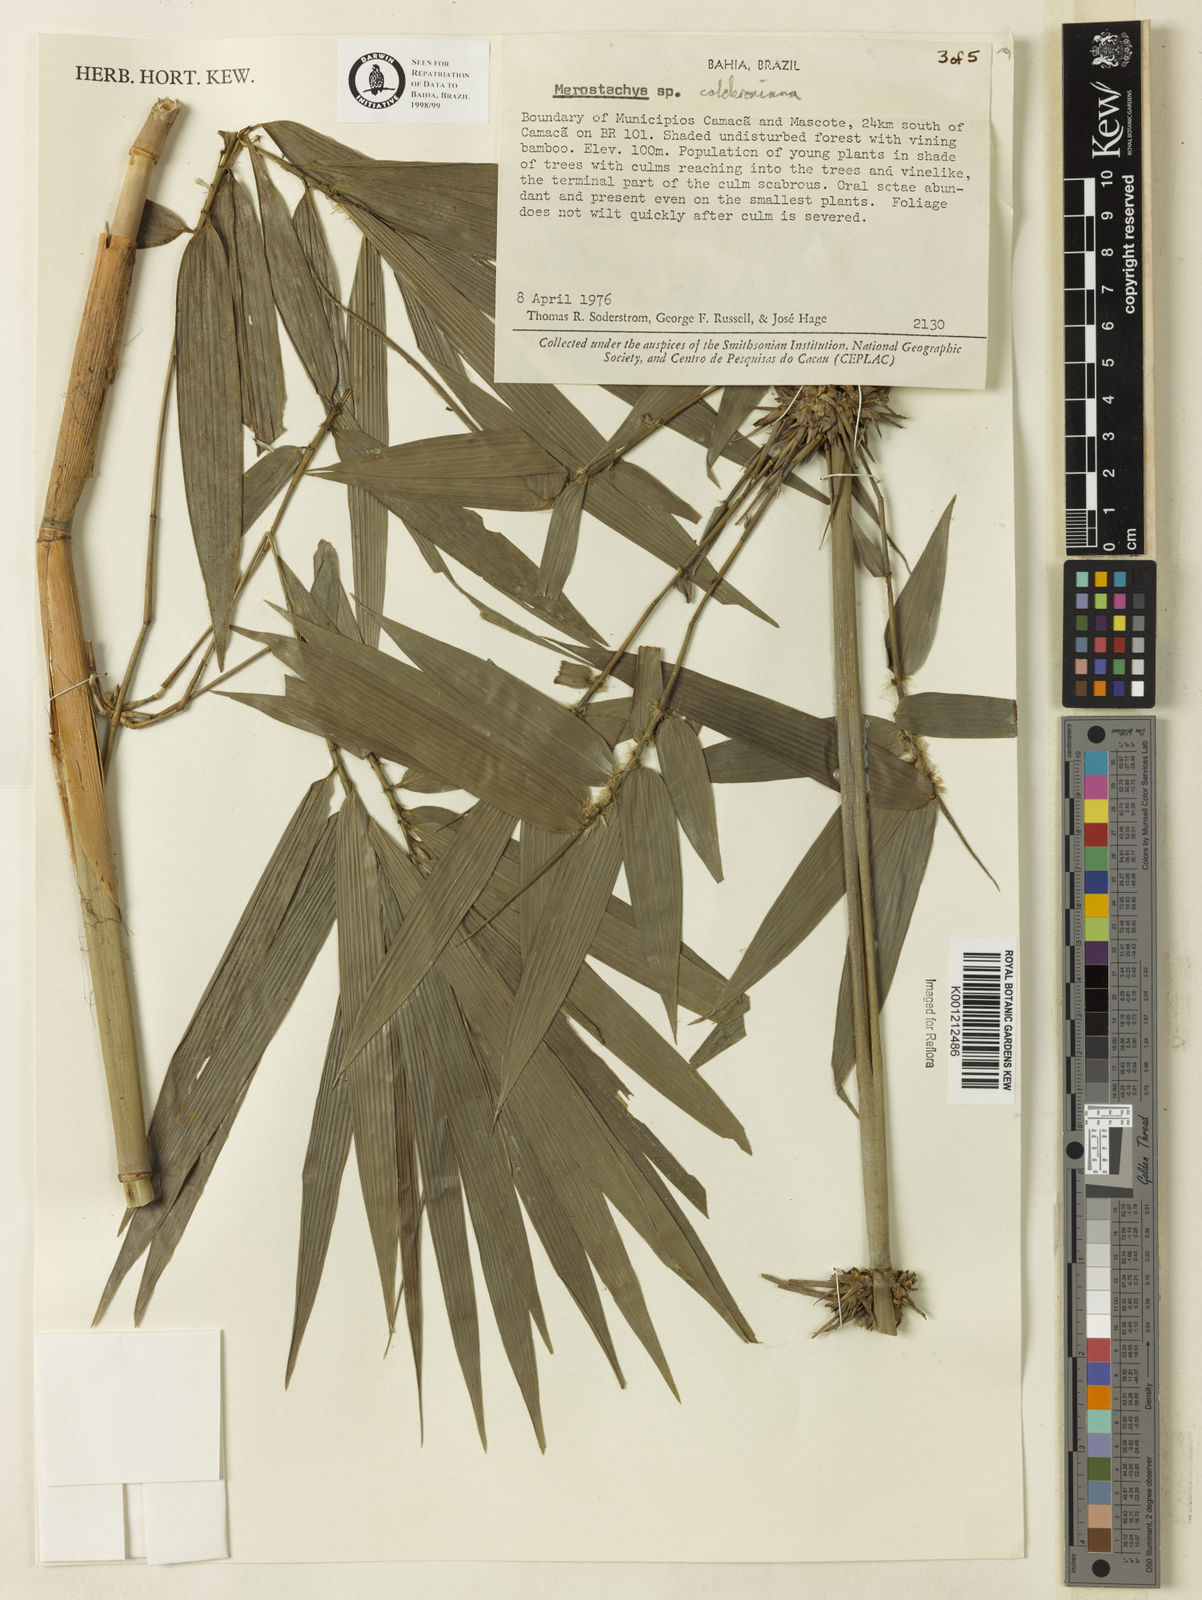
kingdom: Plantae
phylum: Tracheophyta
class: Liliopsida
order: Poales
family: Poaceae
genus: Merostachys
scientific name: Merostachys calderoniana
